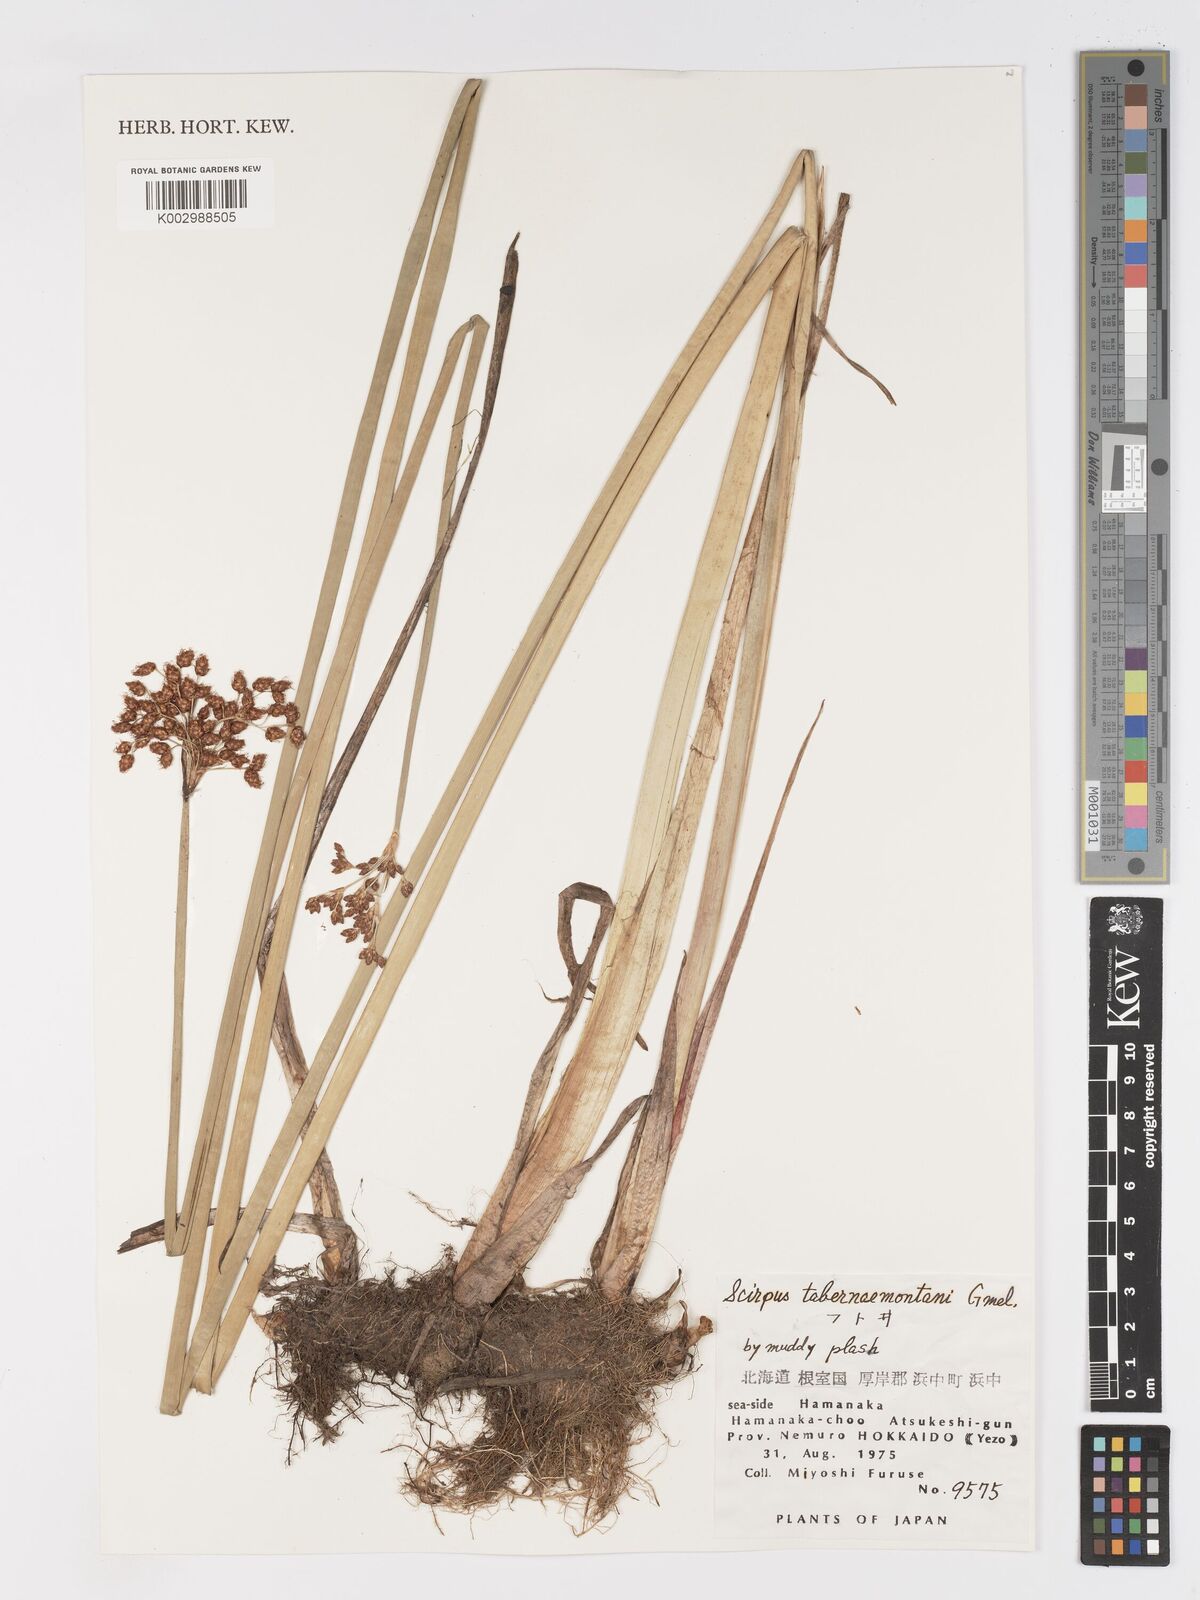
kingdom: Plantae
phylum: Tracheophyta
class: Liliopsida
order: Poales
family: Cyperaceae
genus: Schoenoplectus
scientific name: Schoenoplectus tabernaemontani
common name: Grey club-rush
